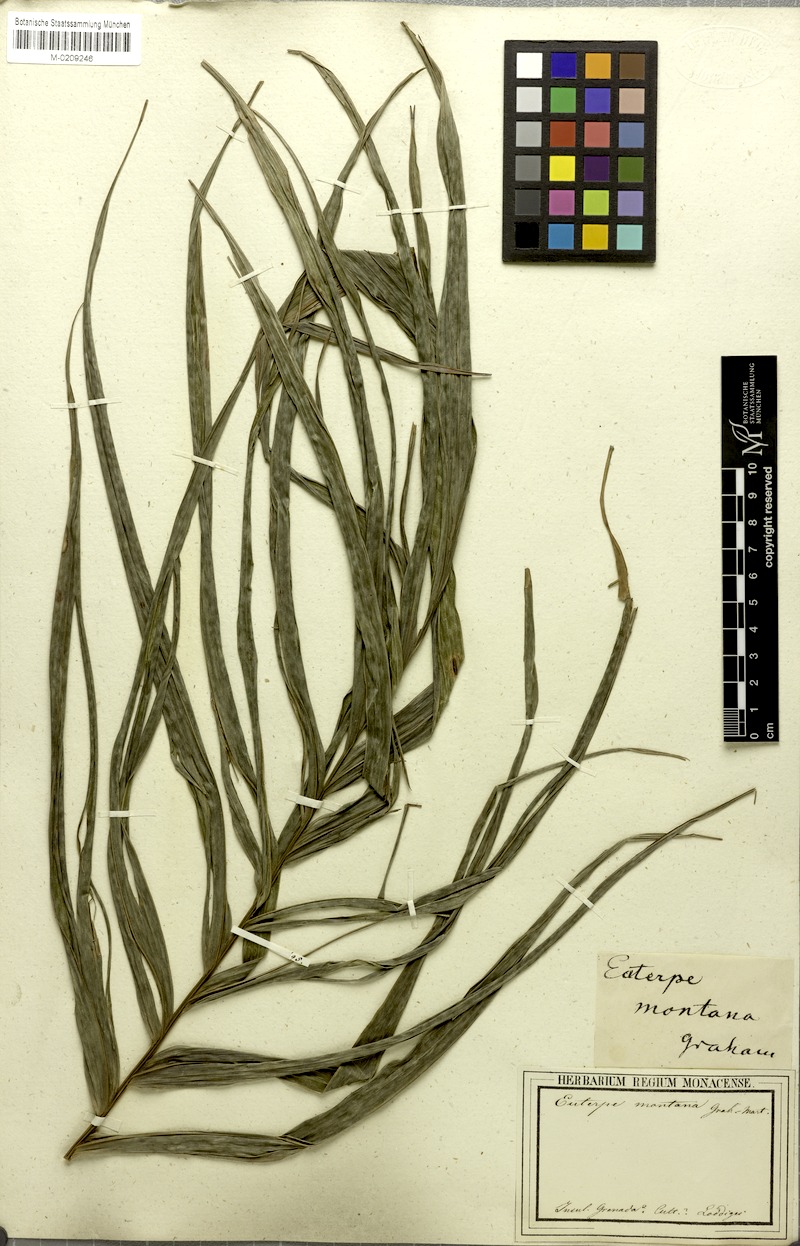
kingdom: Plantae
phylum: Tracheophyta
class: Liliopsida
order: Arecales
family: Arecaceae
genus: Prestoea
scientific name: Prestoea acuminata
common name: Sierran palm
